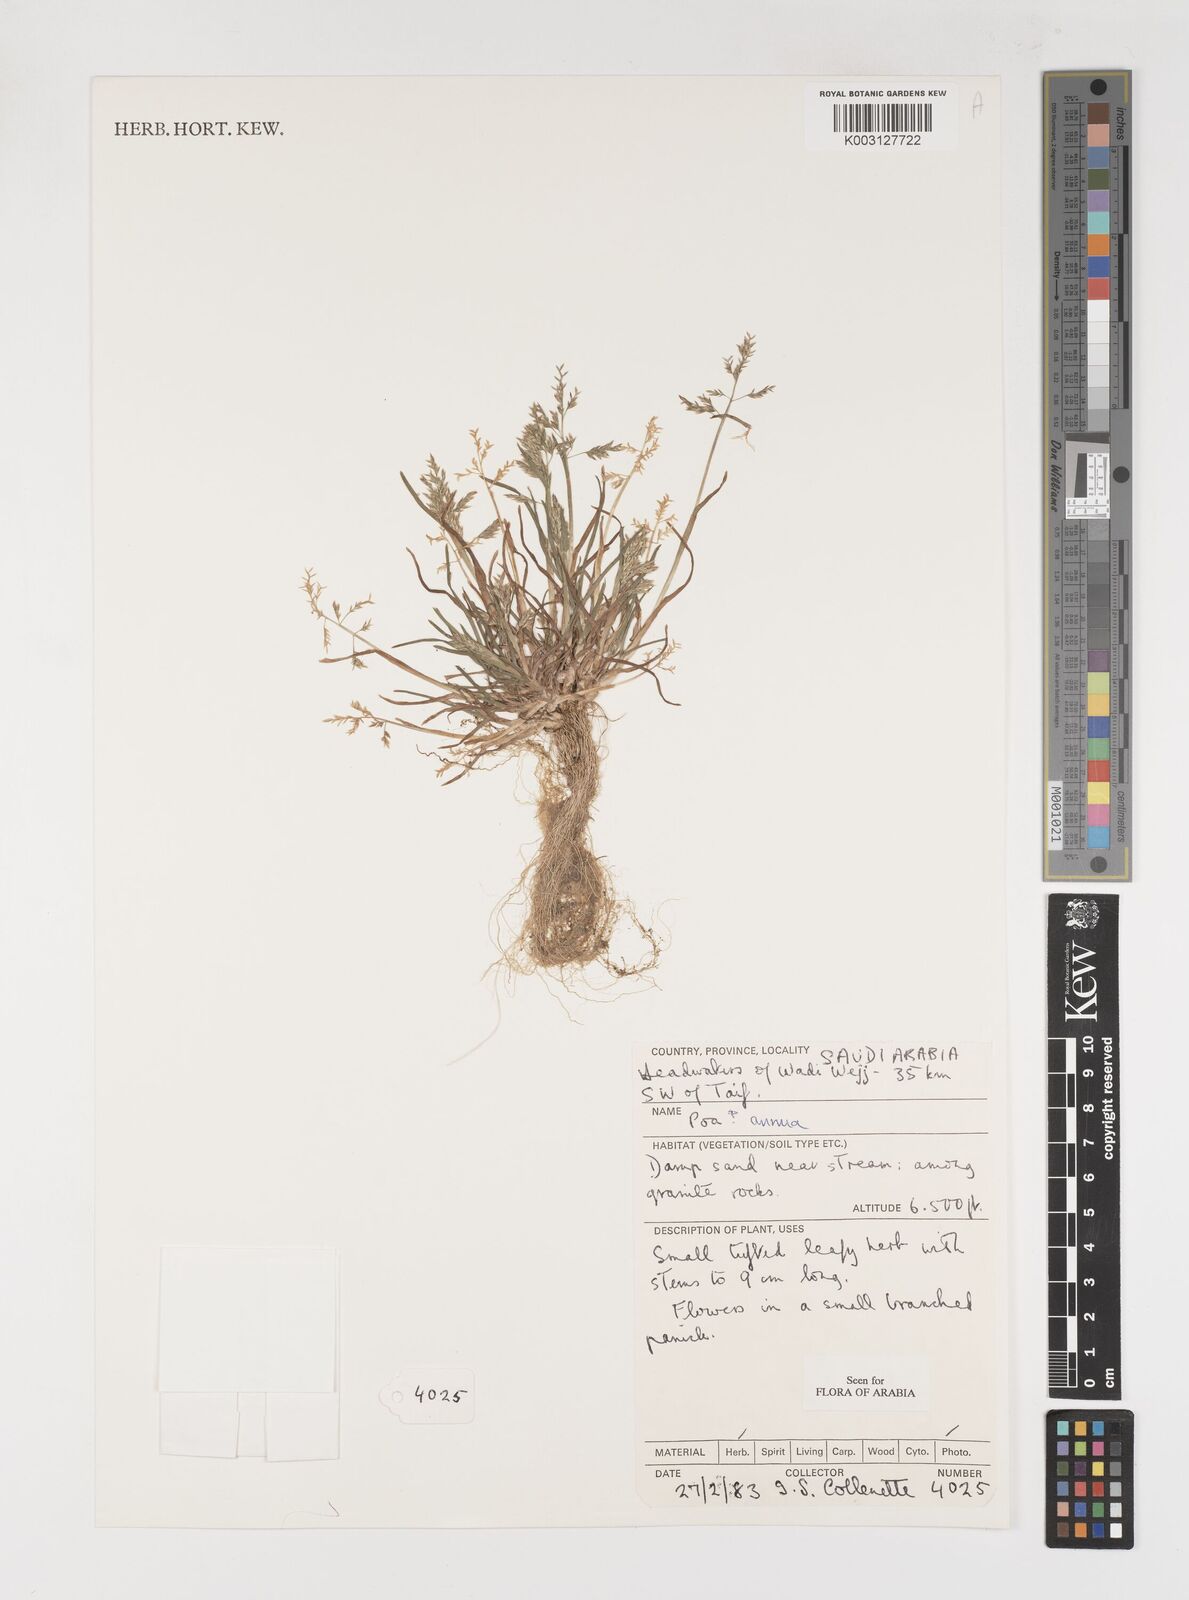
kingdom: Plantae
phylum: Tracheophyta
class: Liliopsida
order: Poales
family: Poaceae
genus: Poa
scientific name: Poa annua
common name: Annual bluegrass
